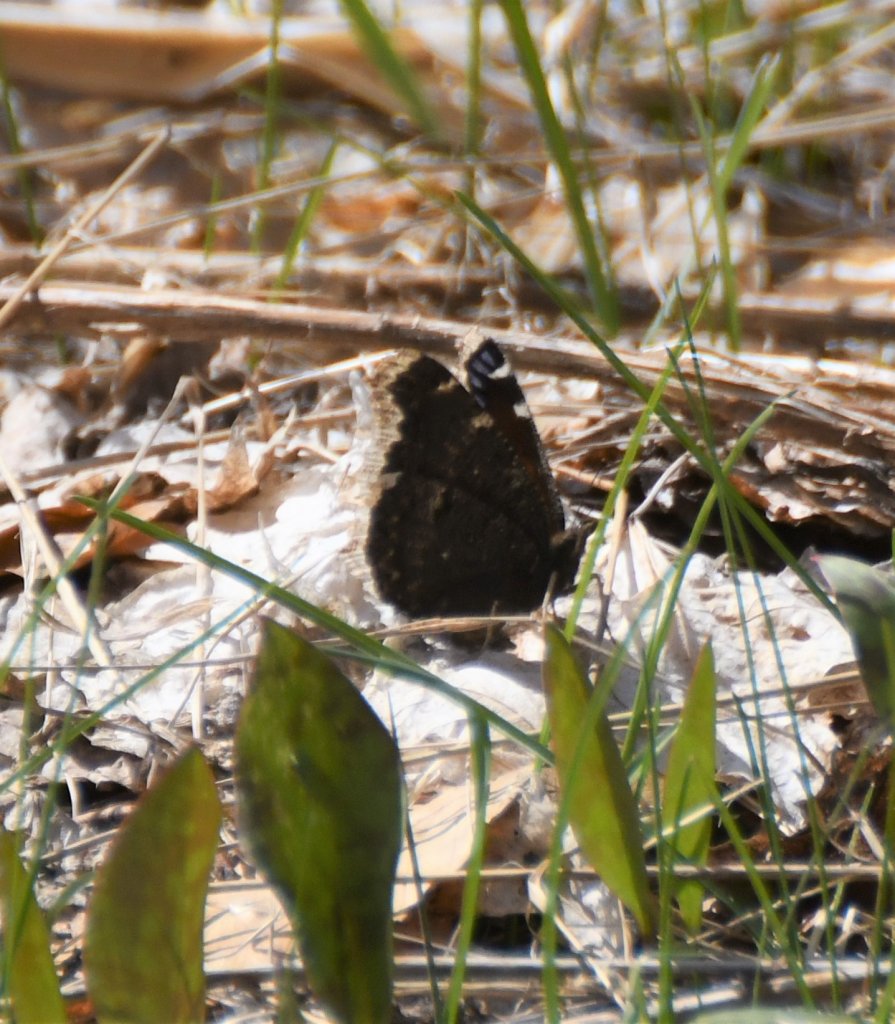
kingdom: Animalia
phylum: Arthropoda
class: Insecta
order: Lepidoptera
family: Nymphalidae
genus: Nymphalis
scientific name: Nymphalis antiopa
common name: Mourning Cloak
